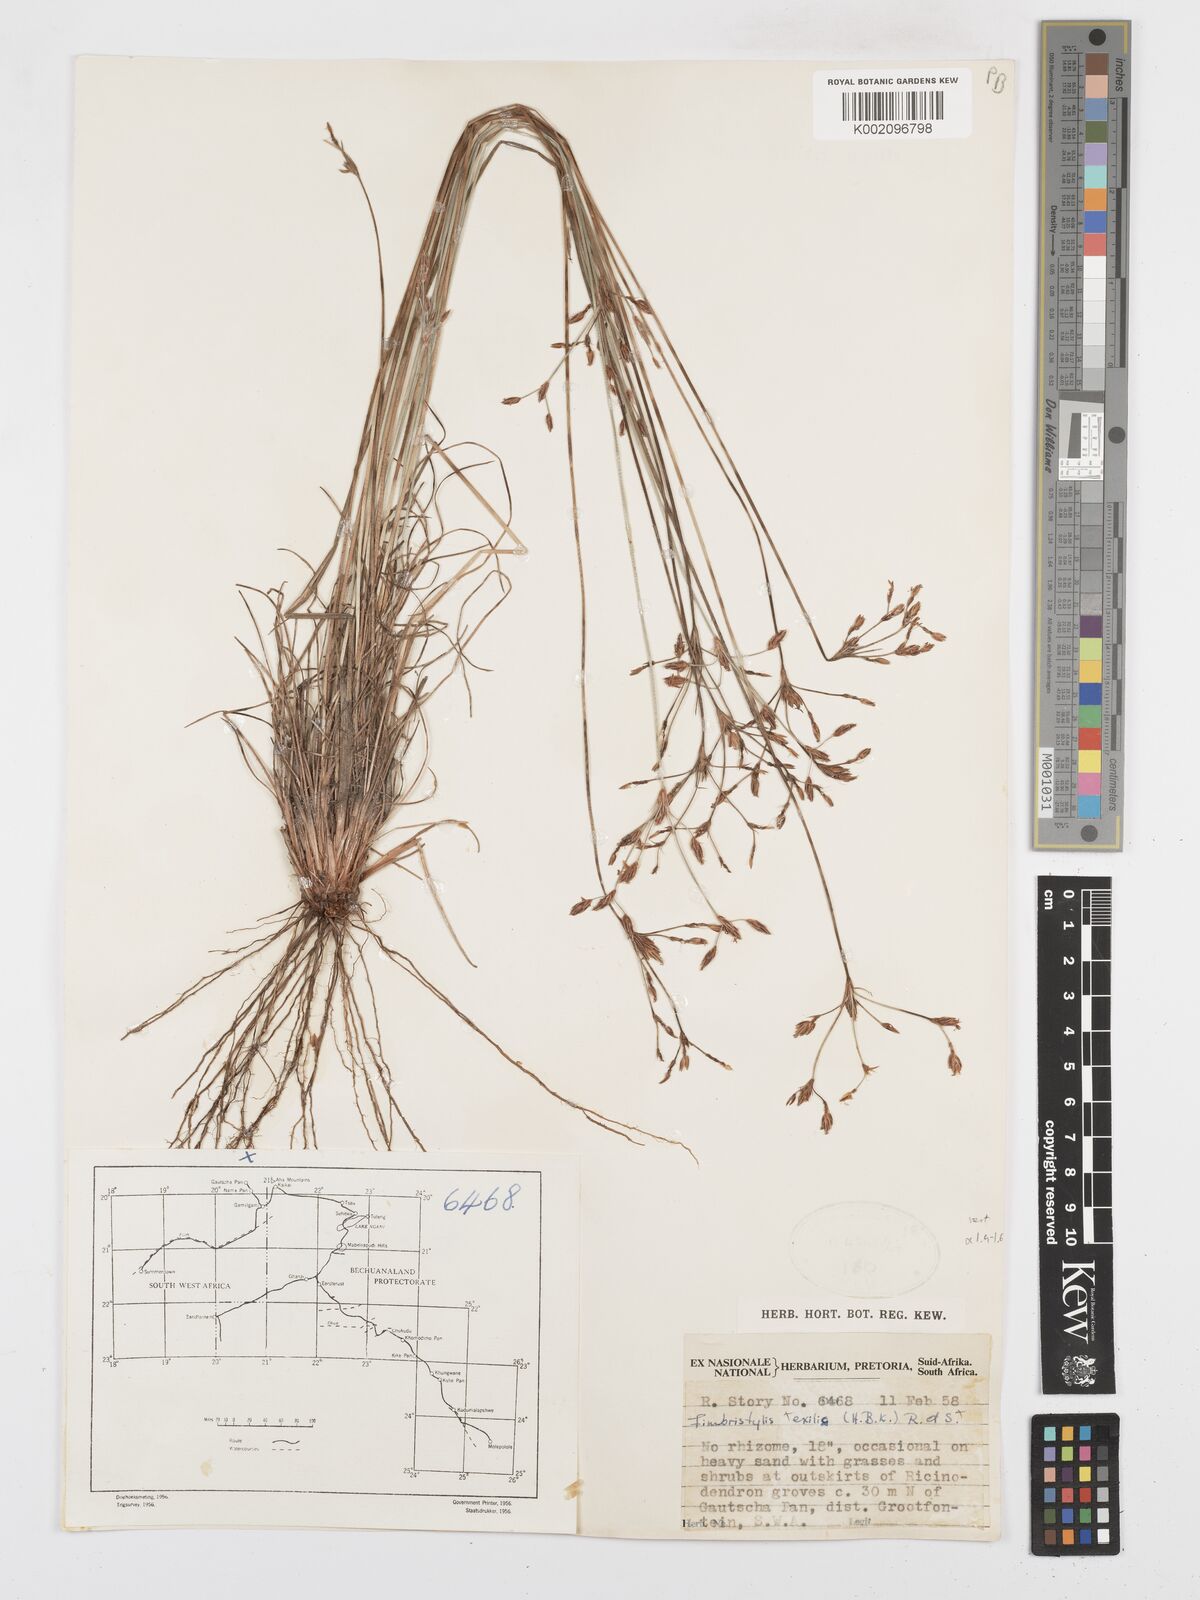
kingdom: Plantae
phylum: Tracheophyta
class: Liliopsida
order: Poales
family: Cyperaceae
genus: Bulbostylis
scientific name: Bulbostylis
